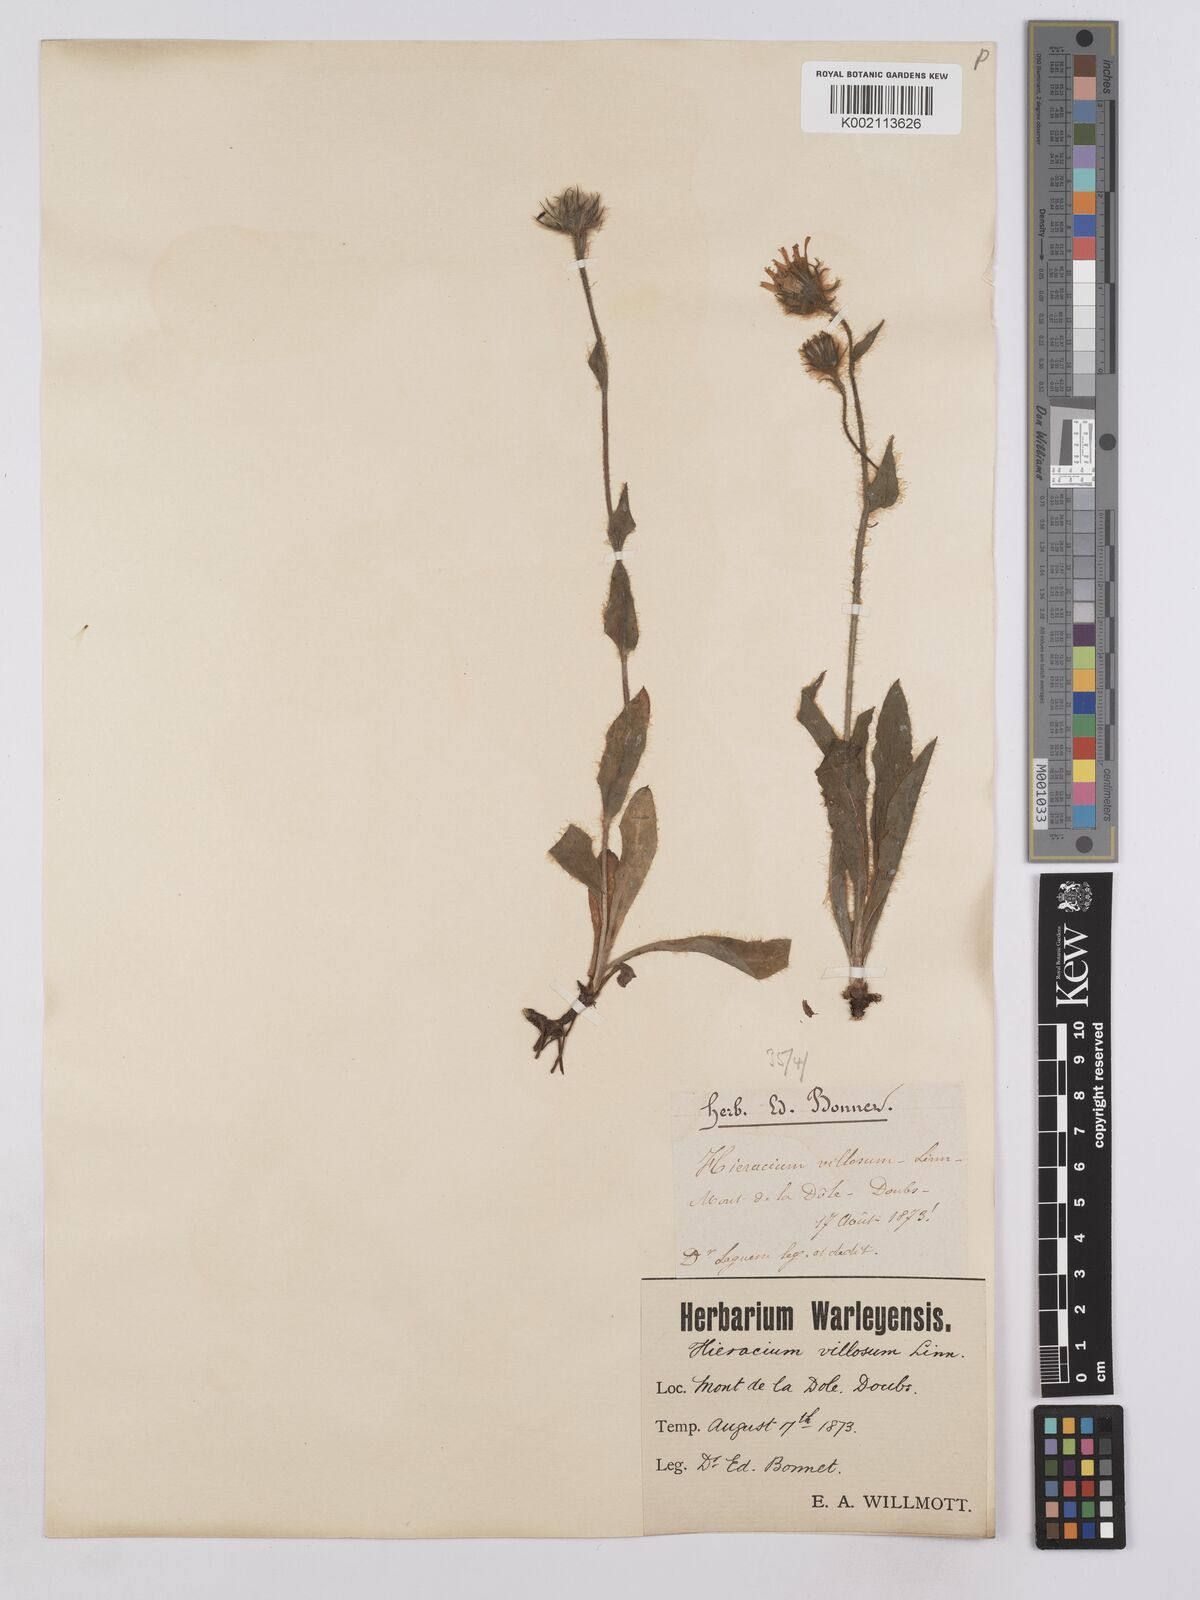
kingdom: Plantae
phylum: Tracheophyta
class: Magnoliopsida
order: Asterales
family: Asteraceae
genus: Hieracium
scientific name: Hieracium villosum
